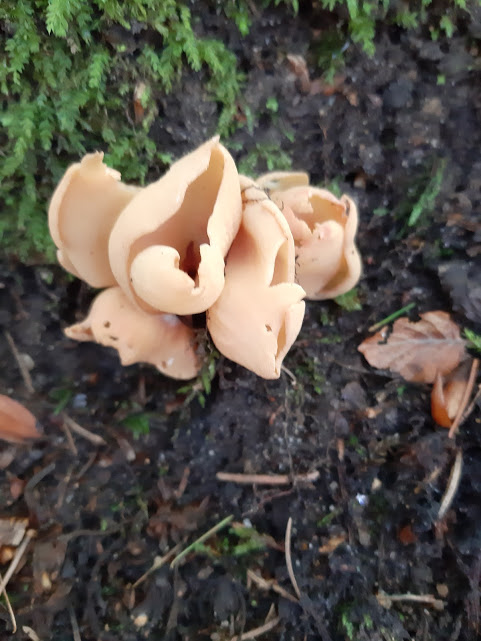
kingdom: Fungi
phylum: Ascomycota
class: Pezizomycetes
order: Pezizales
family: Otideaceae
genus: Otidea
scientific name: Otidea onotica
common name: æsel-ørebæger
